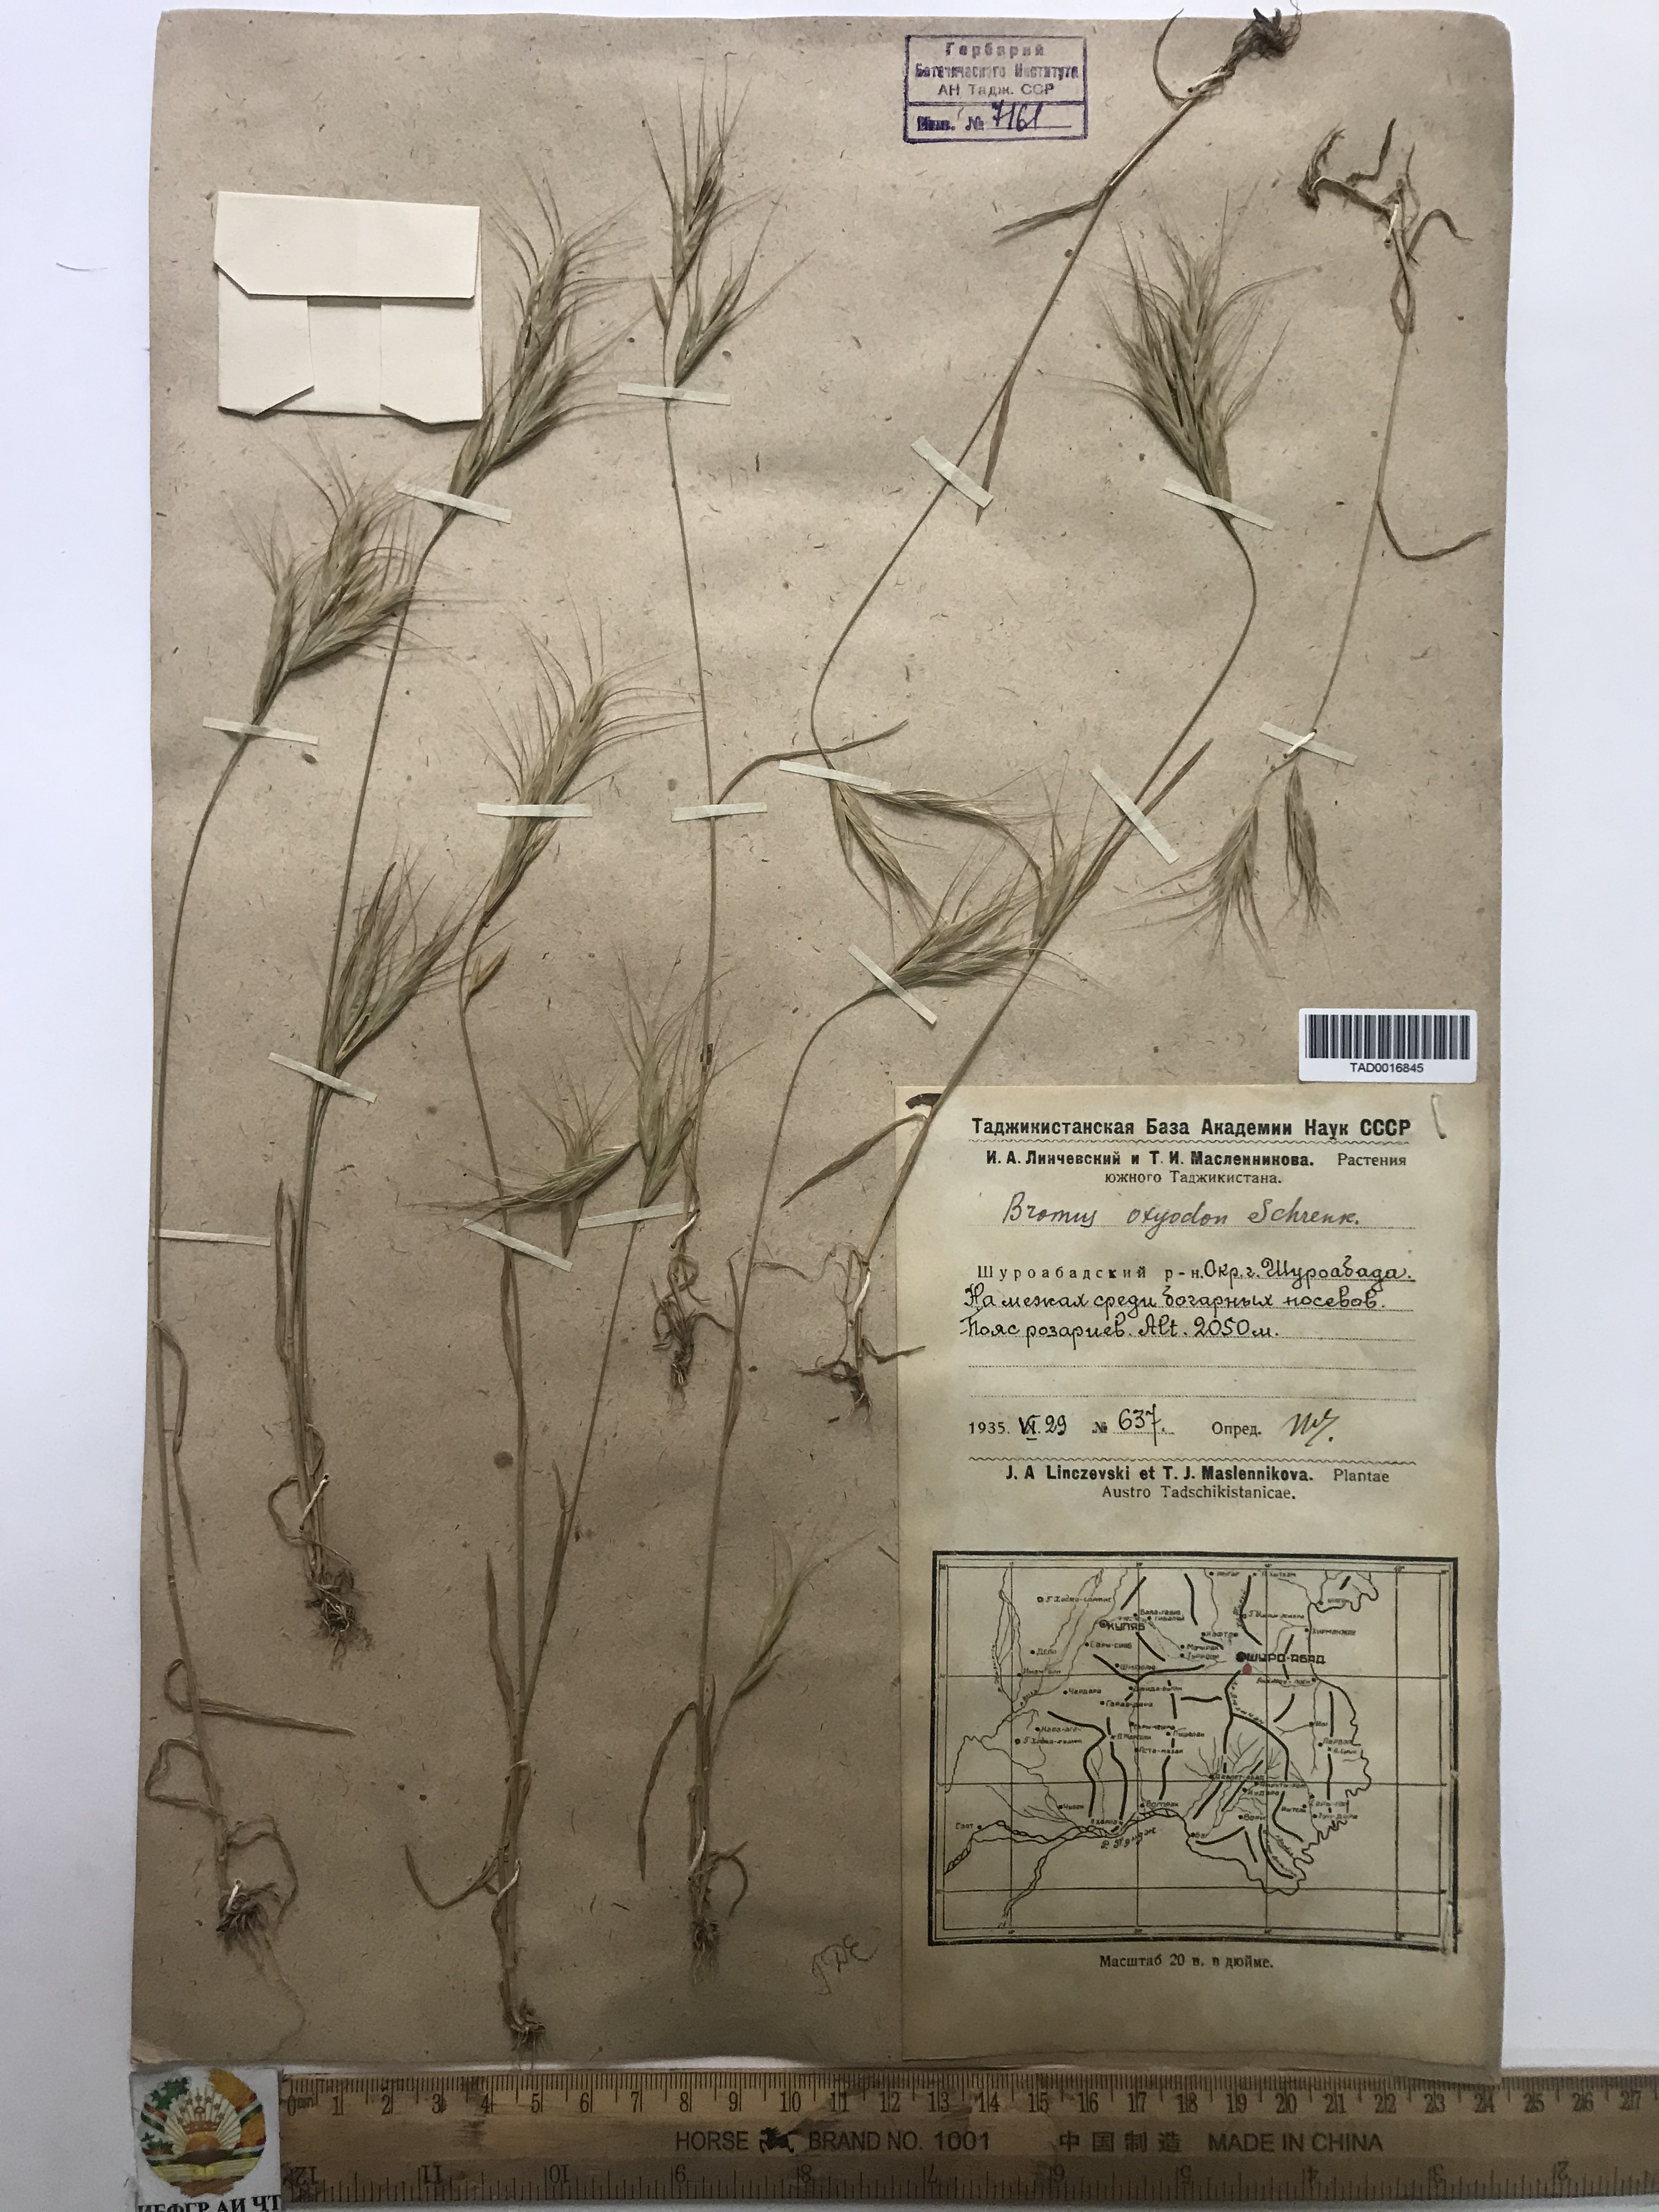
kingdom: Plantae
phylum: Tracheophyta
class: Liliopsida
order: Poales
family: Poaceae
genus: Bromus
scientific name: Bromus oxyodon
